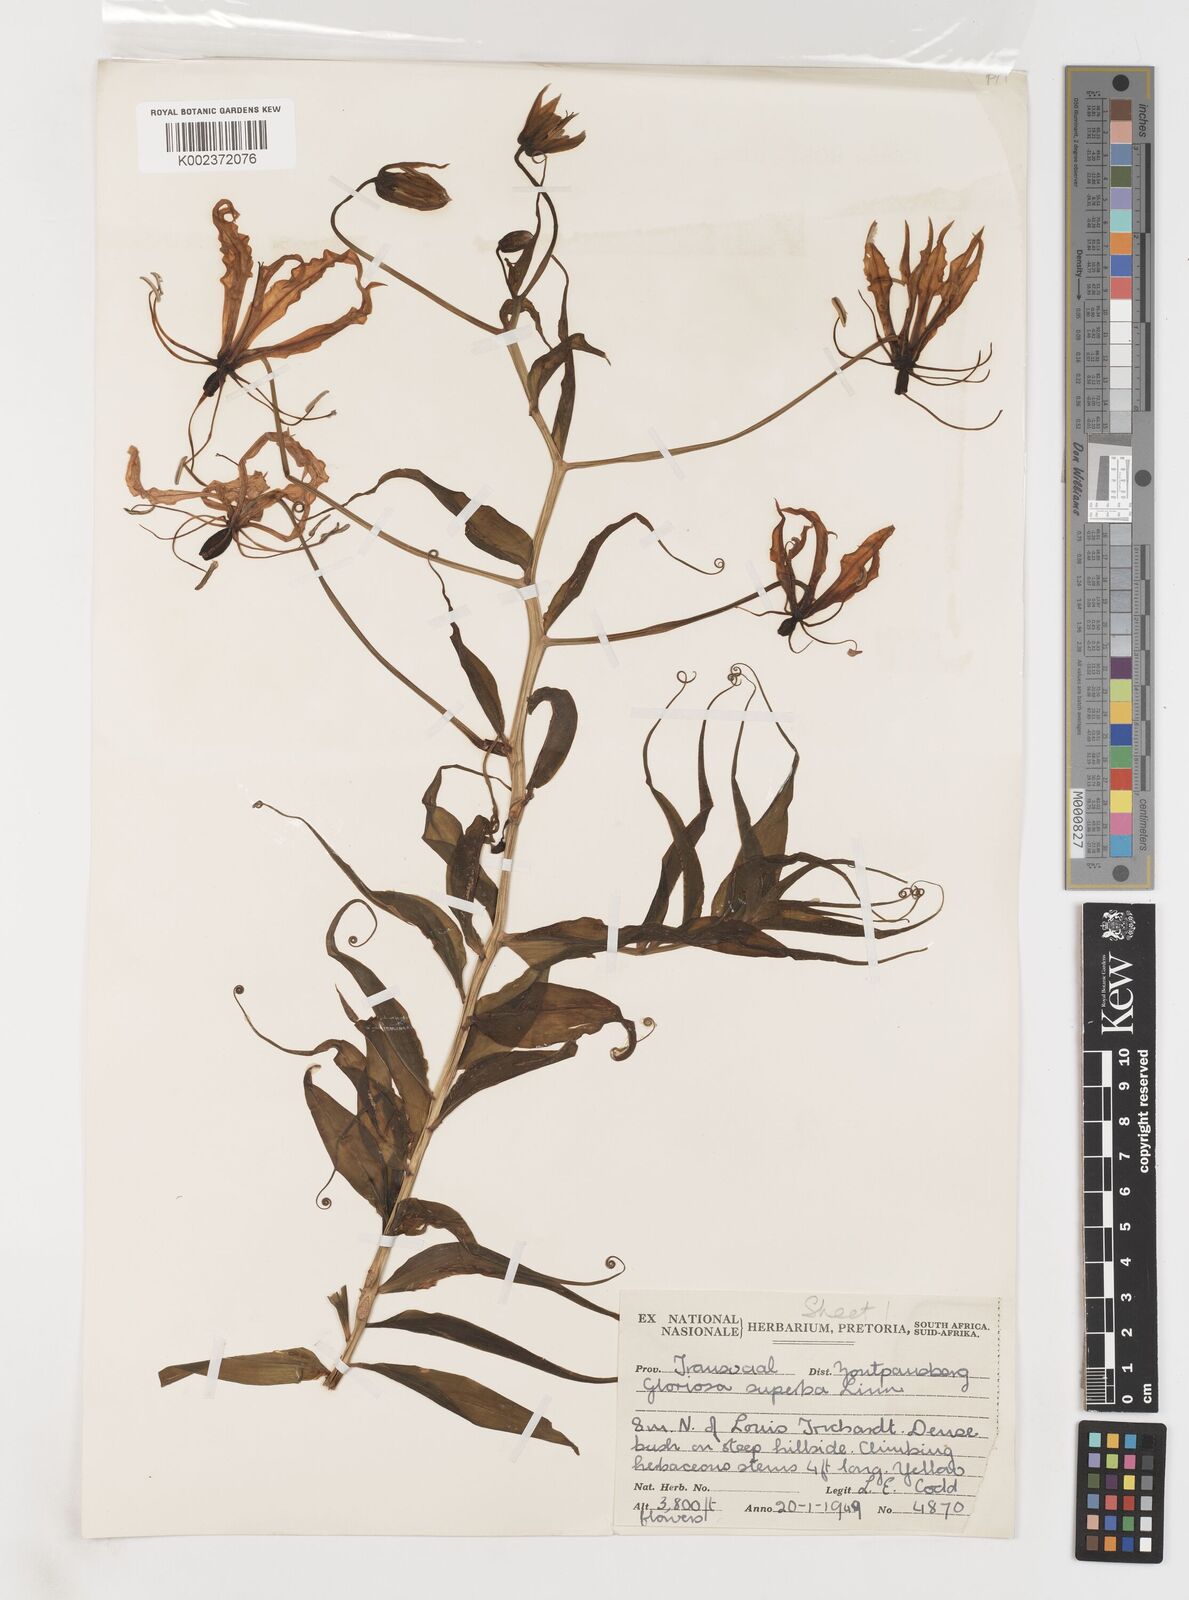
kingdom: Plantae
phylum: Tracheophyta
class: Liliopsida
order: Liliales
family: Colchicaceae
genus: Gloriosa
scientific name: Gloriosa simplex
